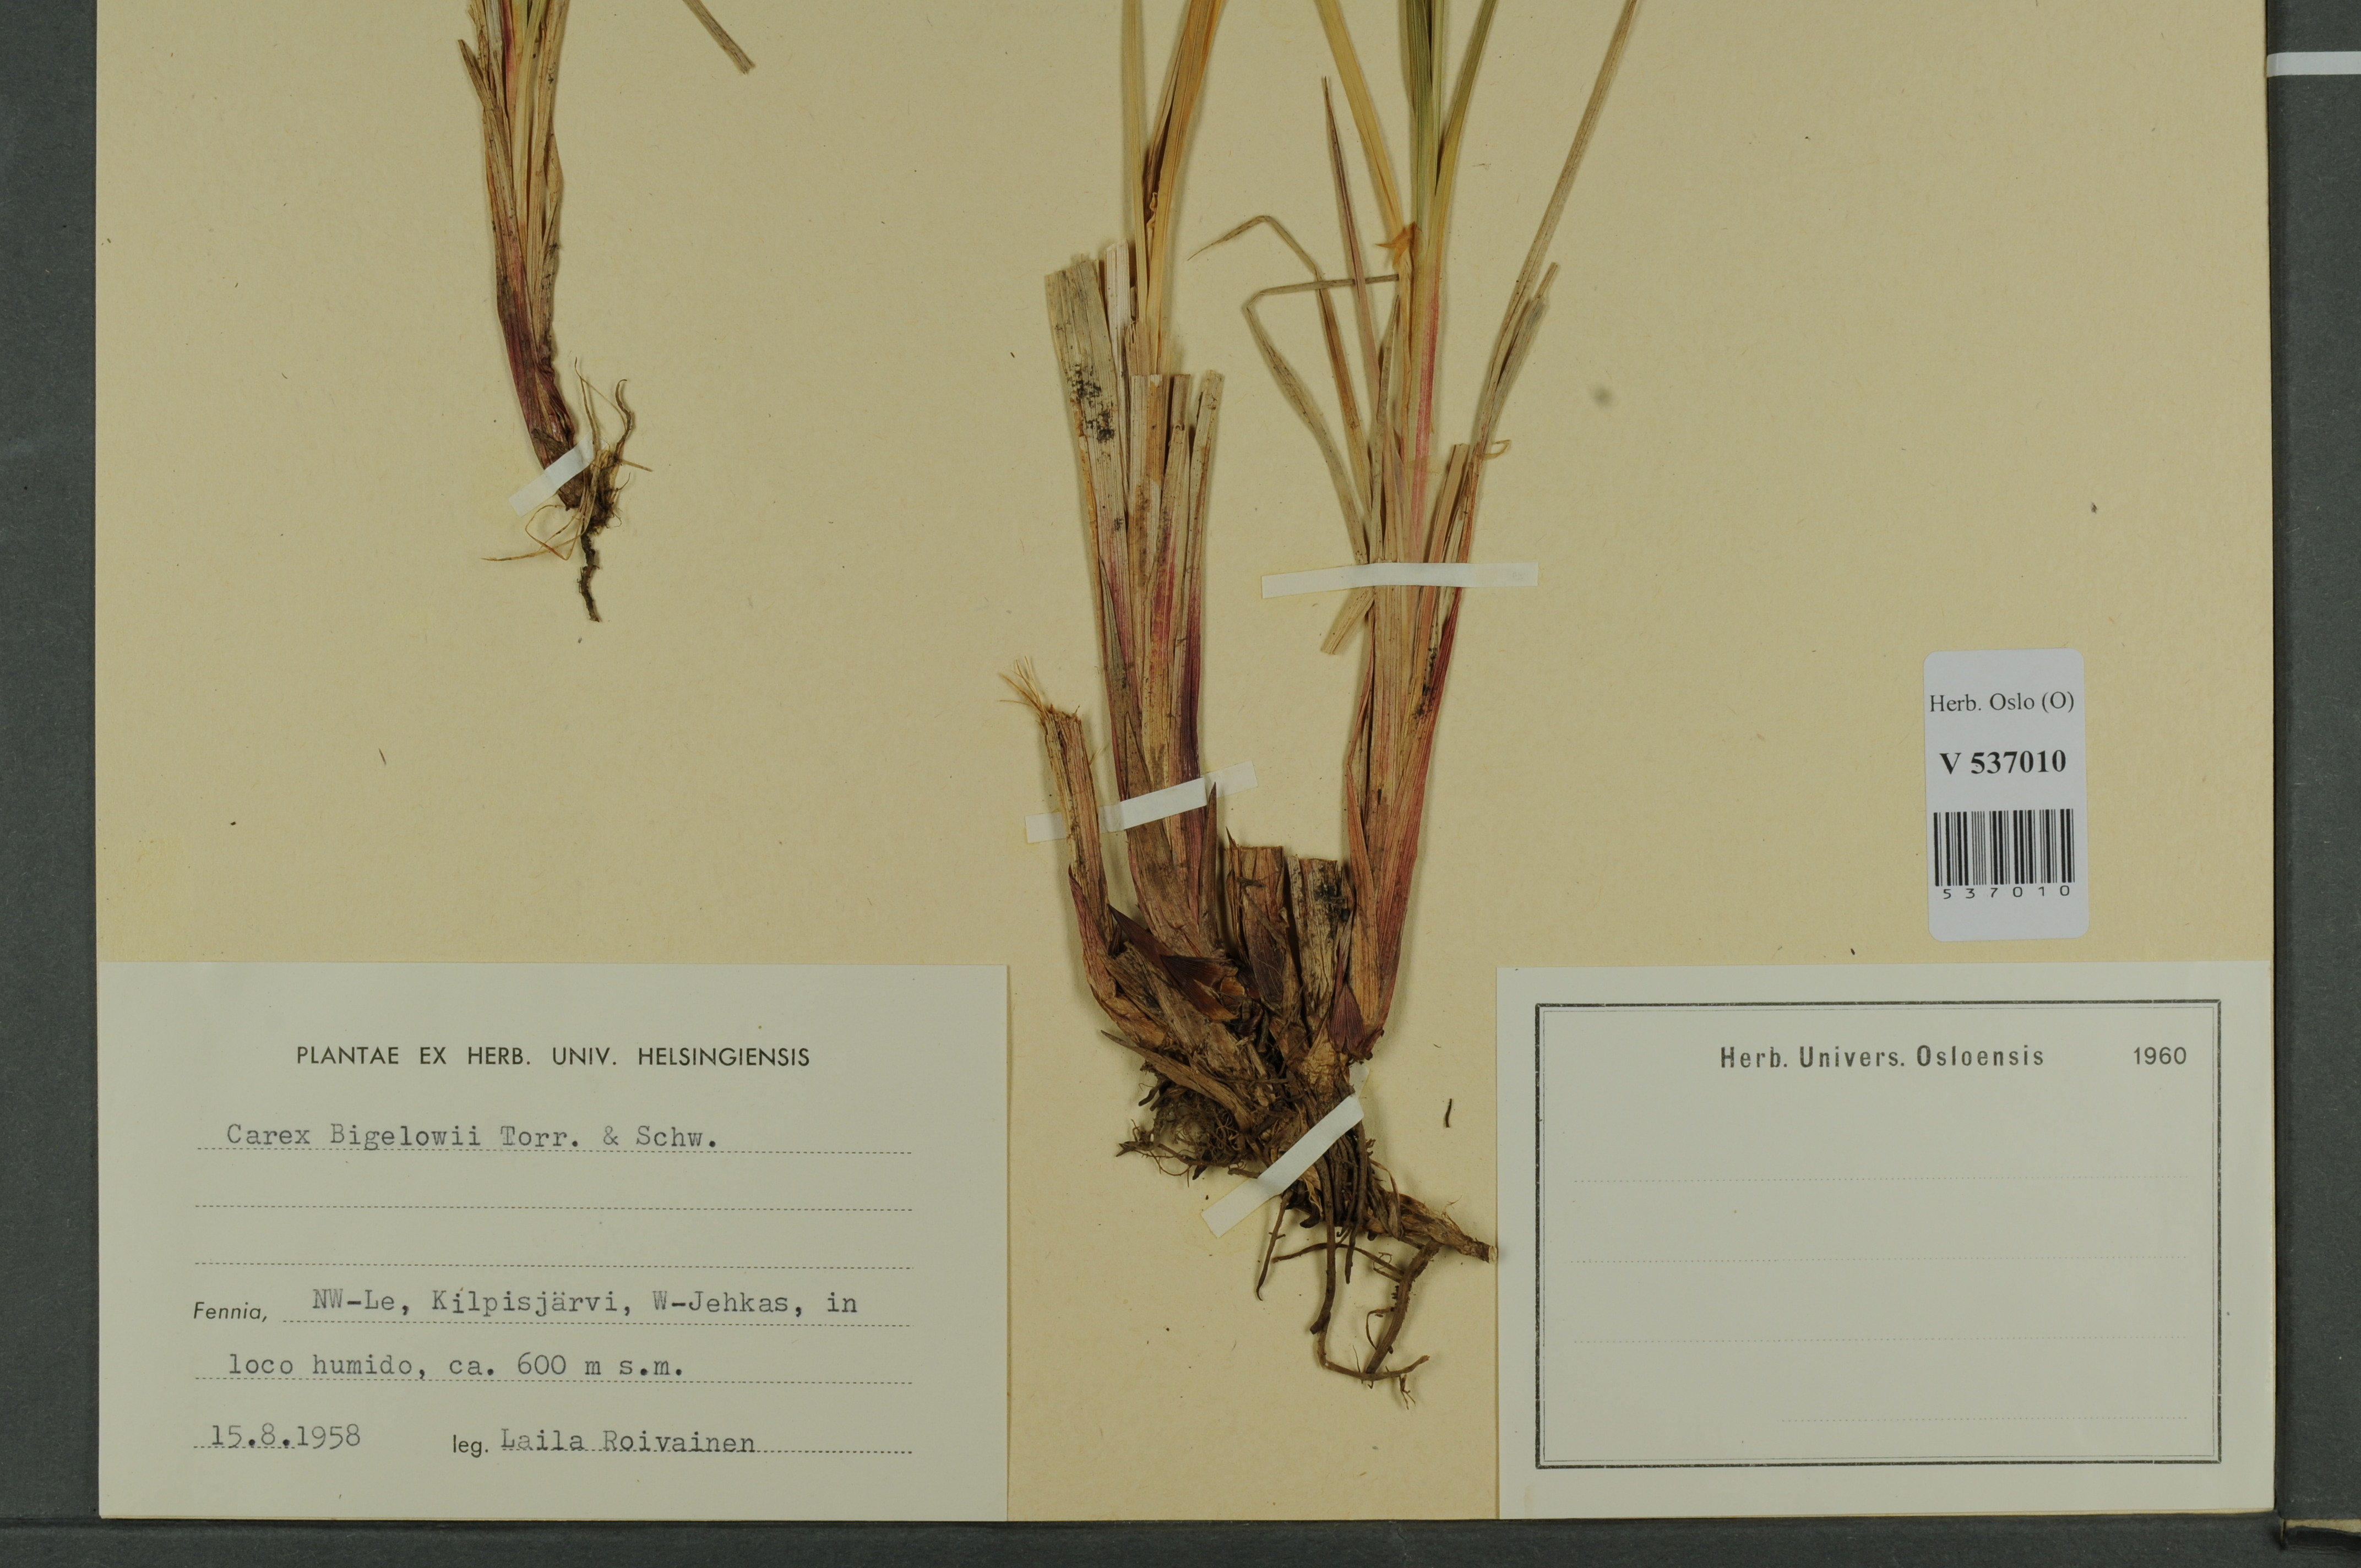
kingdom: Plantae
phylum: Tracheophyta
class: Liliopsida
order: Poales
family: Cyperaceae
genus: Carex
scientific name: Carex bigelowii
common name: Stiff sedge
